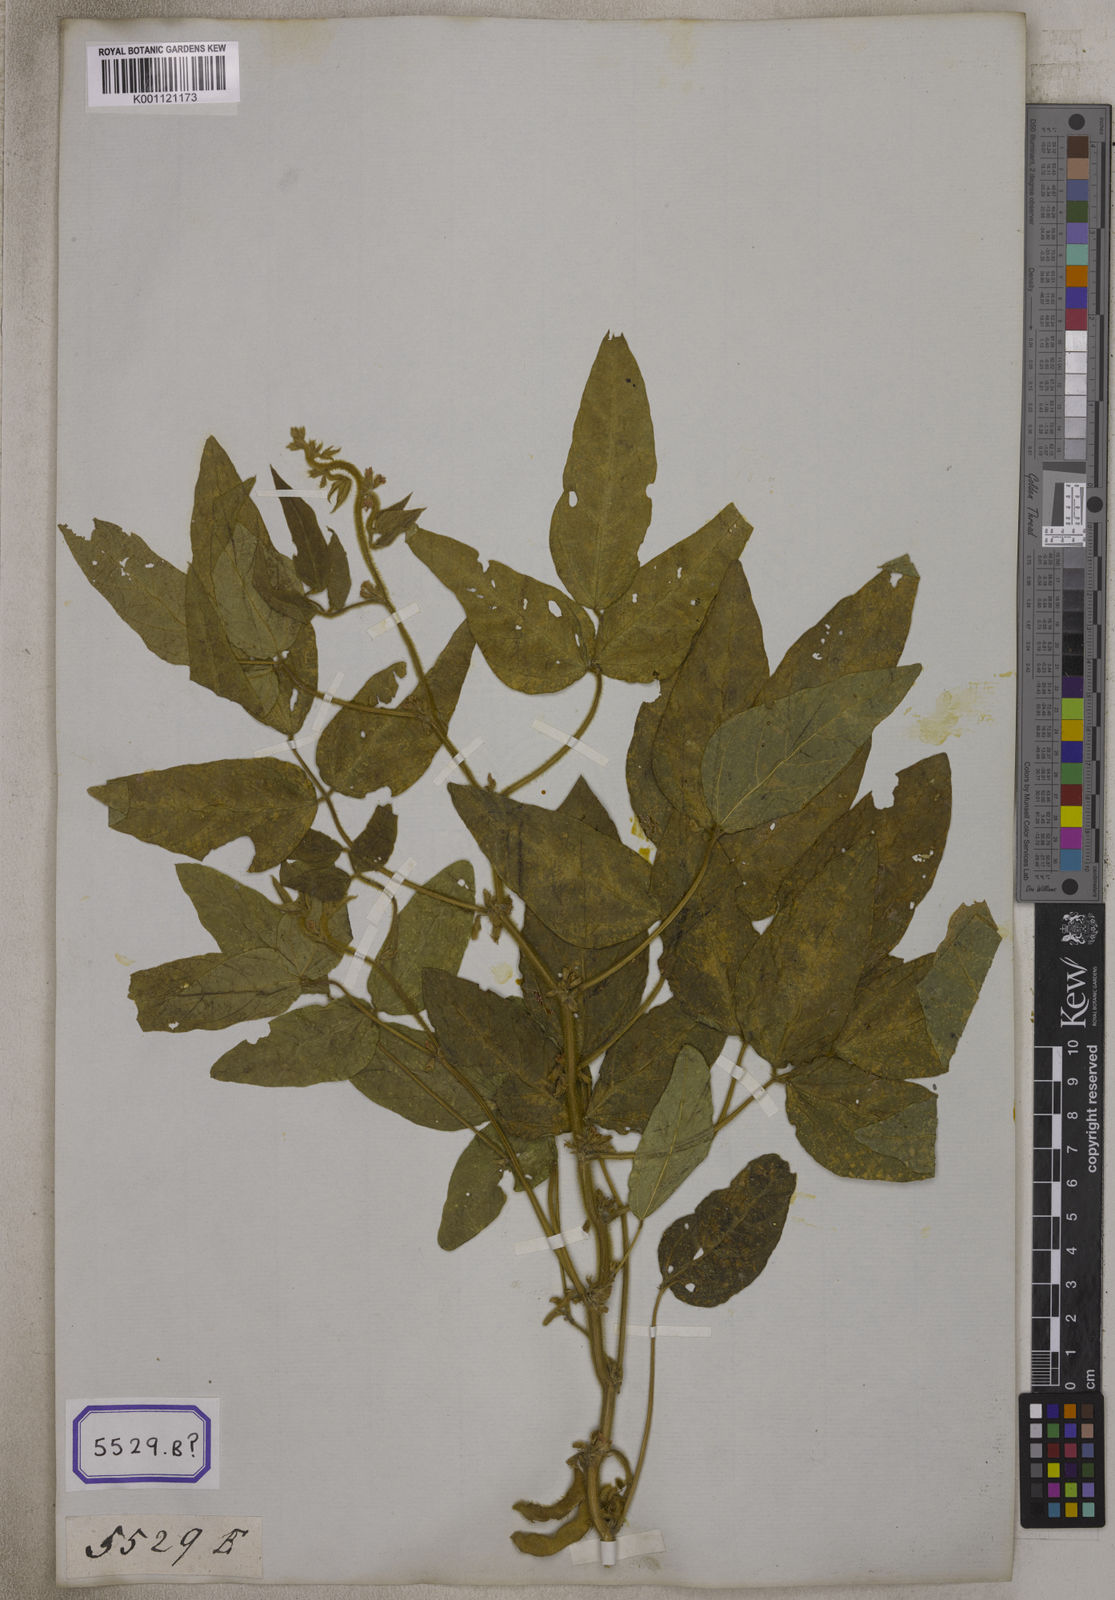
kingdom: Plantae
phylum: Tracheophyta
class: Magnoliopsida
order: Fabales
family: Fabaceae
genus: Glycine
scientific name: Glycine max
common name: Soya-bean
